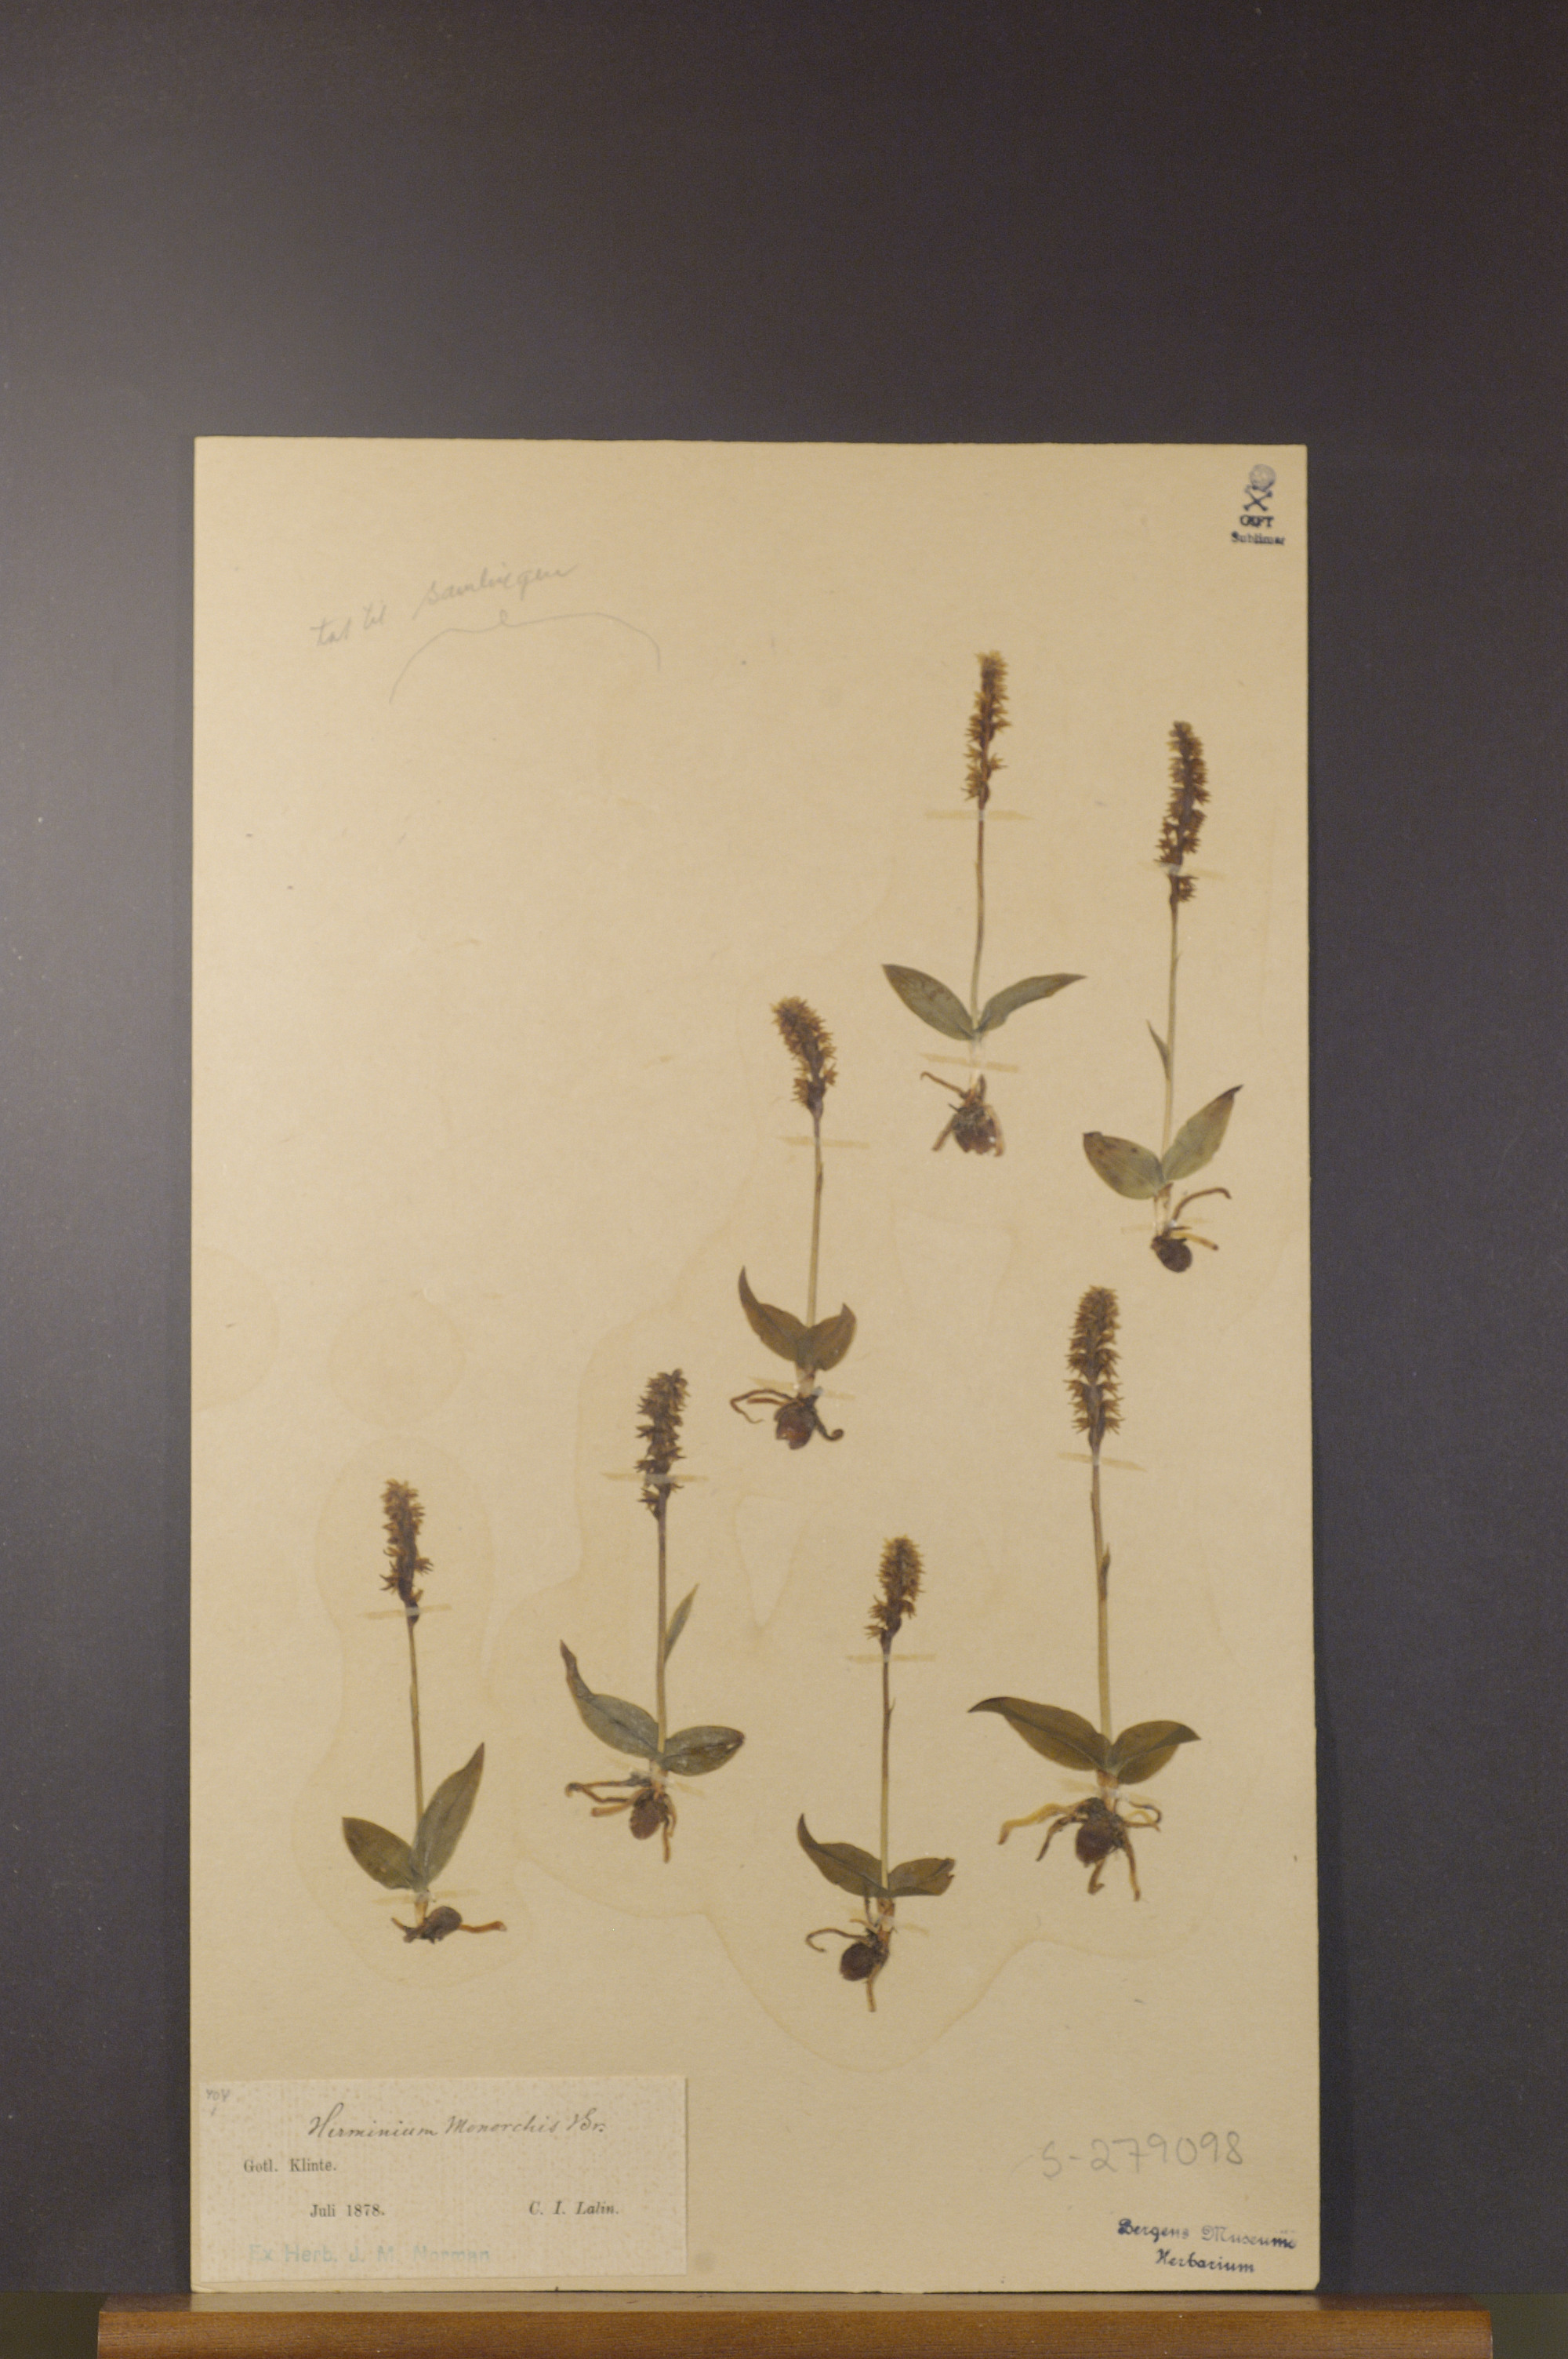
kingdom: Plantae
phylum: Tracheophyta
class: Liliopsida
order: Asparagales
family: Orchidaceae
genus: Herminium
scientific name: Herminium monorchis
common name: Musk orchid
